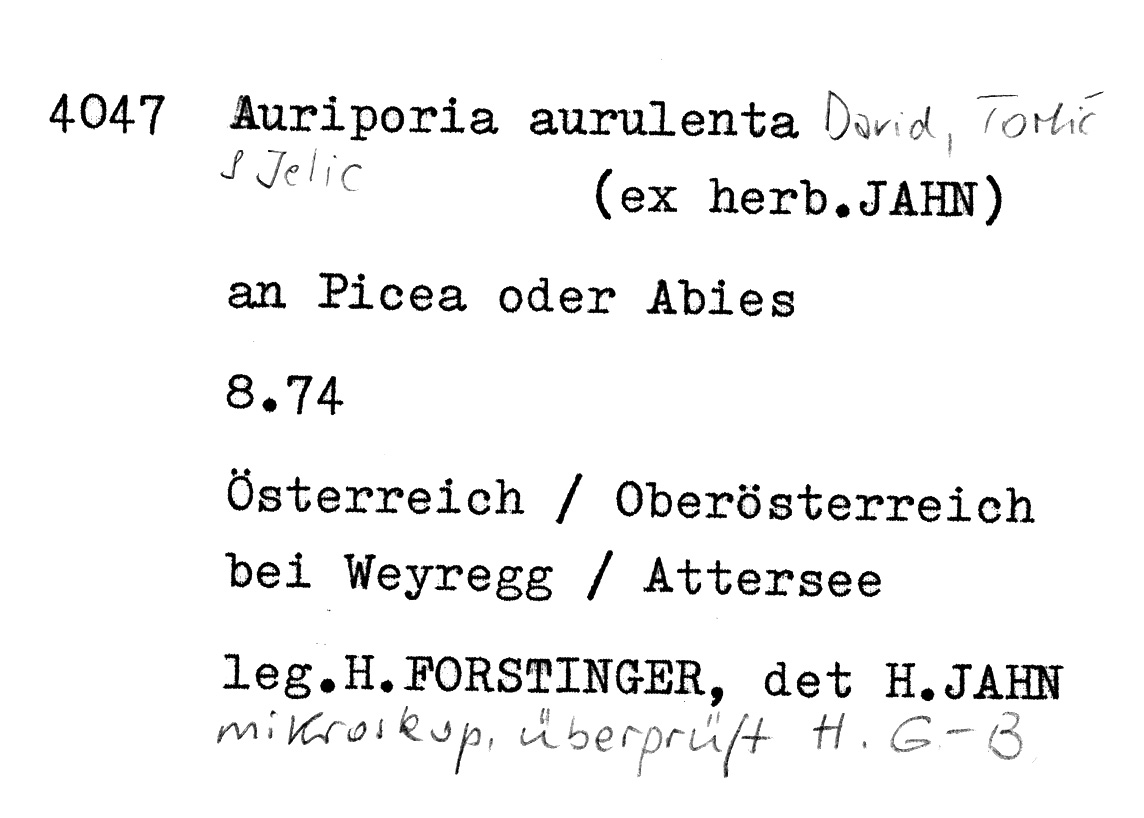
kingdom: Fungi
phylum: Basidiomycota
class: Agaricomycetes
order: Polyporales
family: Fomitopsidaceae
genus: Auriporia
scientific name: Auriporia aurulenta
